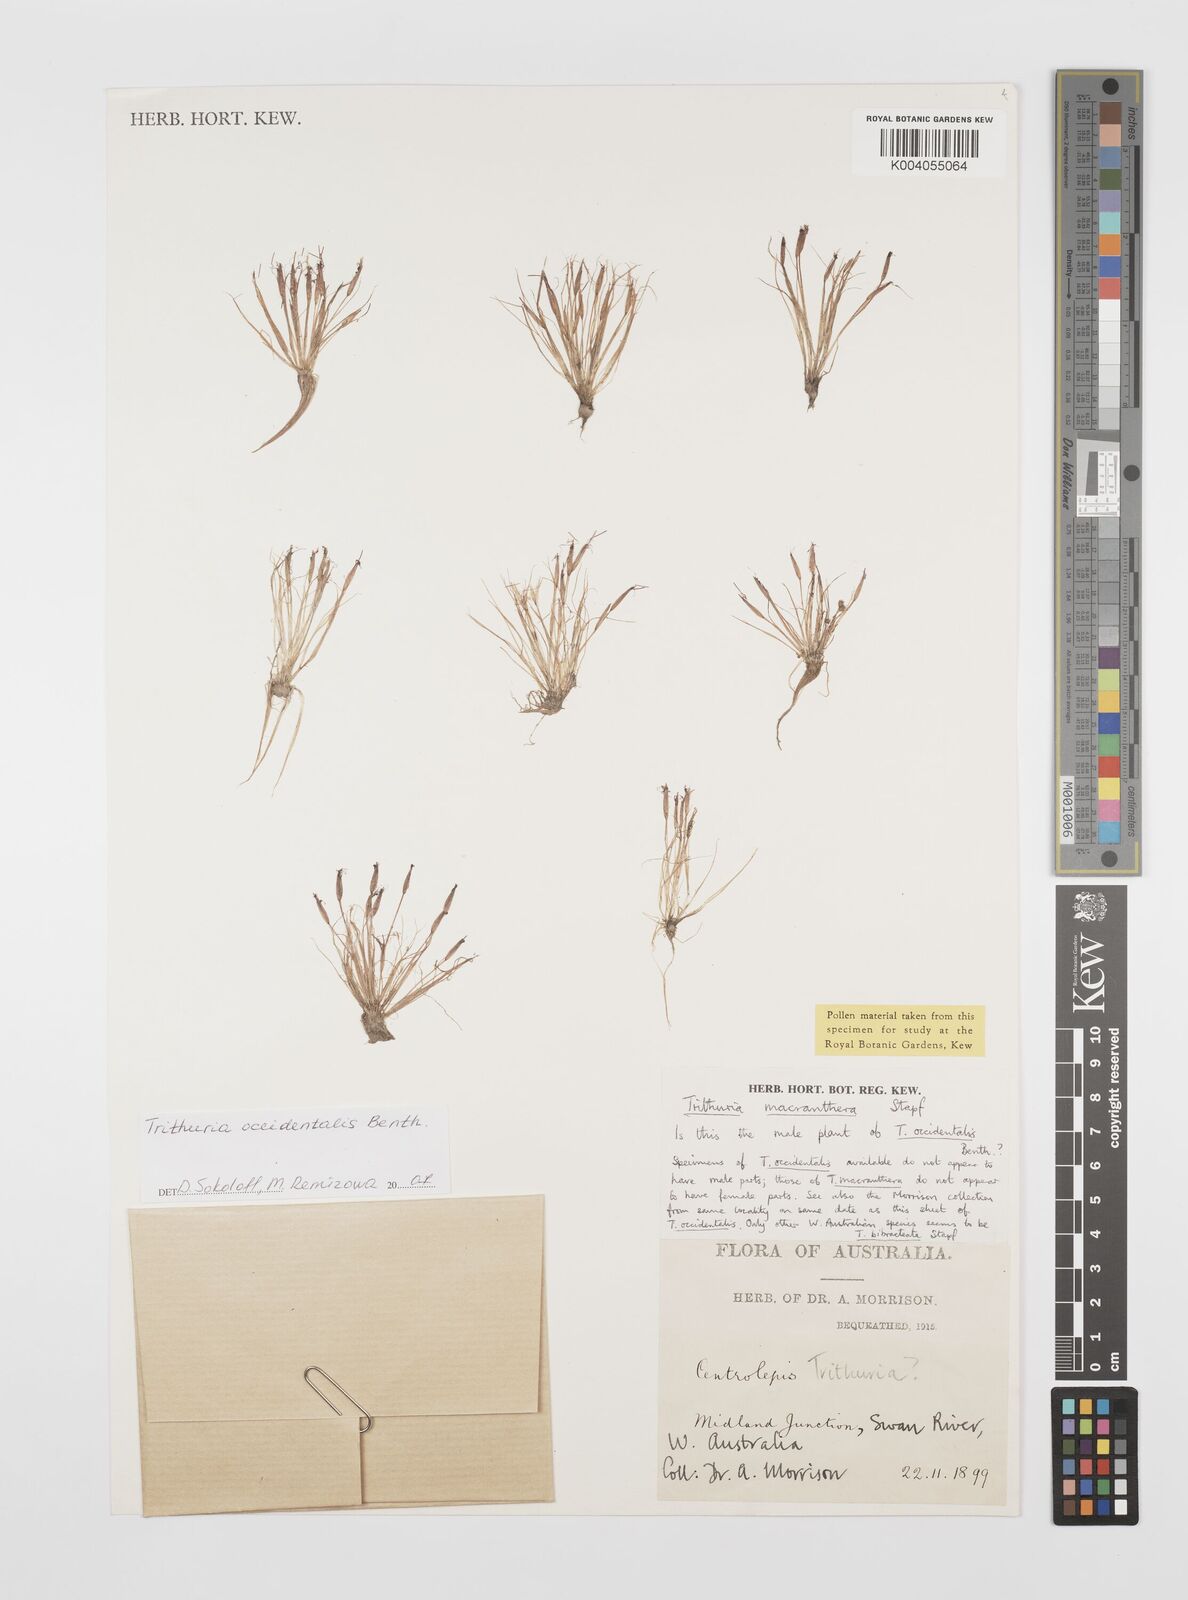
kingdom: Plantae
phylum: Tracheophyta
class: Magnoliopsida
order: Nymphaeales
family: Hydatellaceae
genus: Trithuria
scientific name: Trithuria occidentalis
